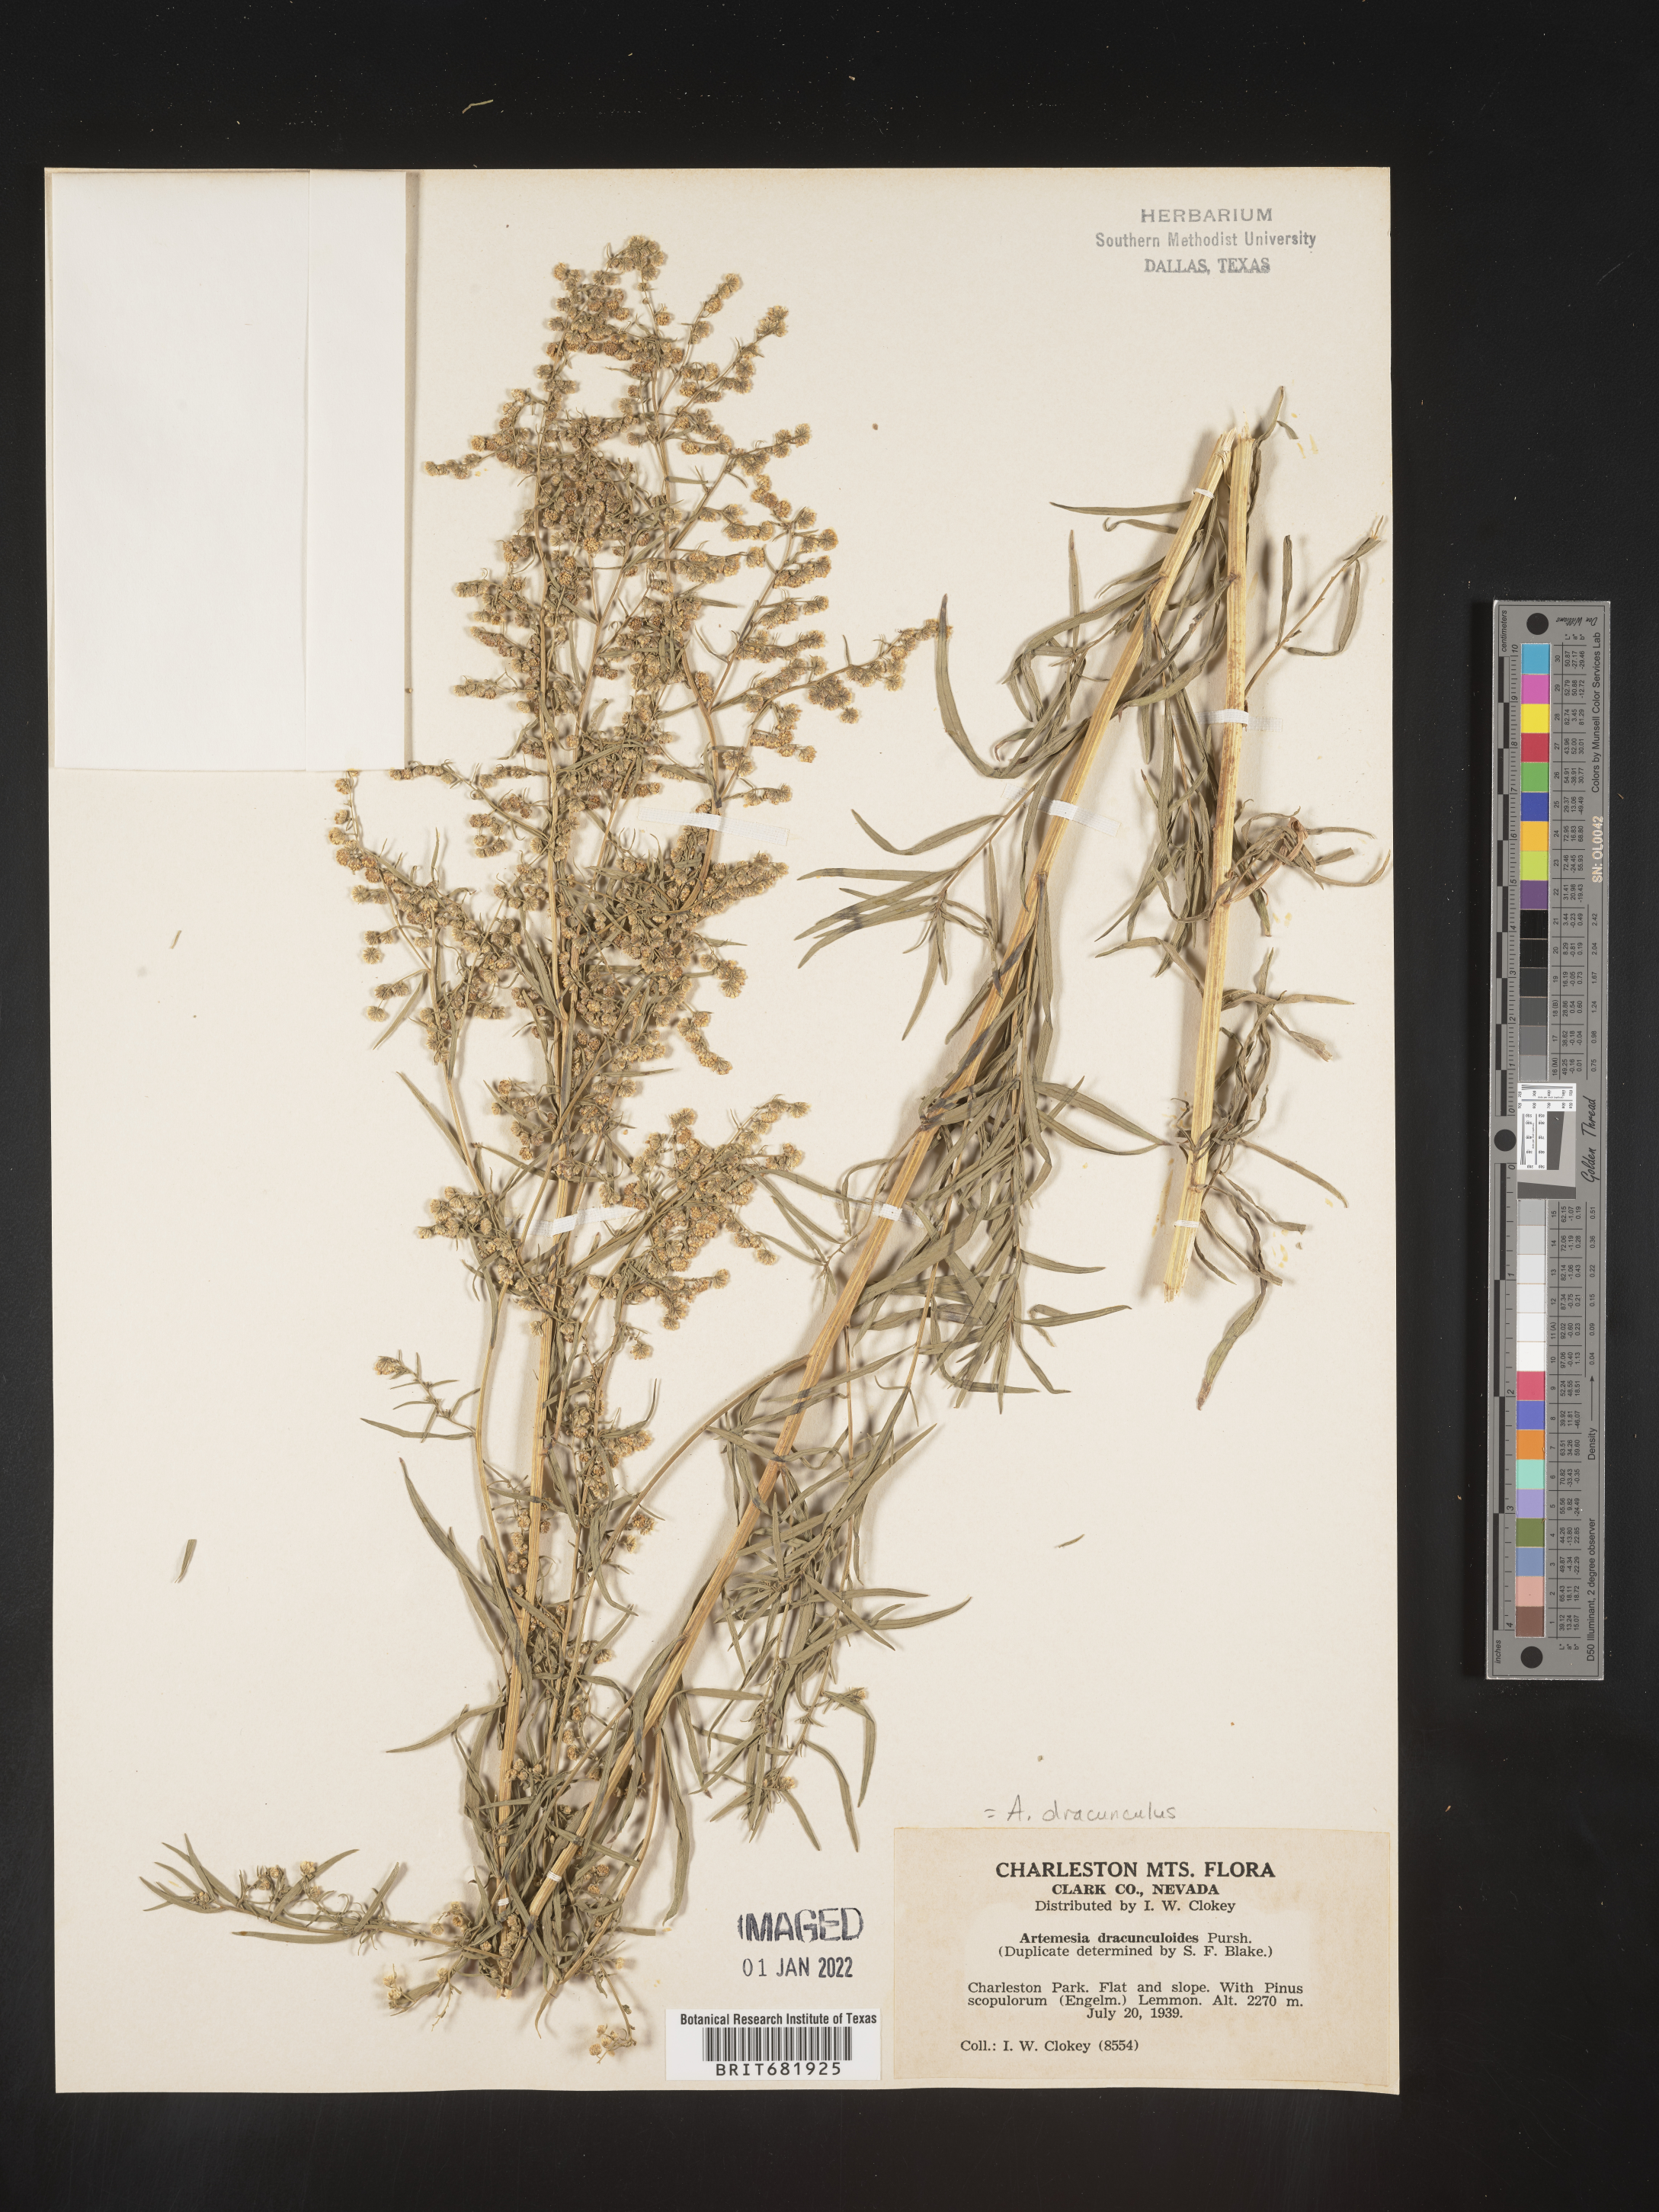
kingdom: Plantae
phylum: Tracheophyta
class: Magnoliopsida
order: Asterales
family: Asteraceae
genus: Artemisia
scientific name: Artemisia dracunculus
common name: Tarragon
